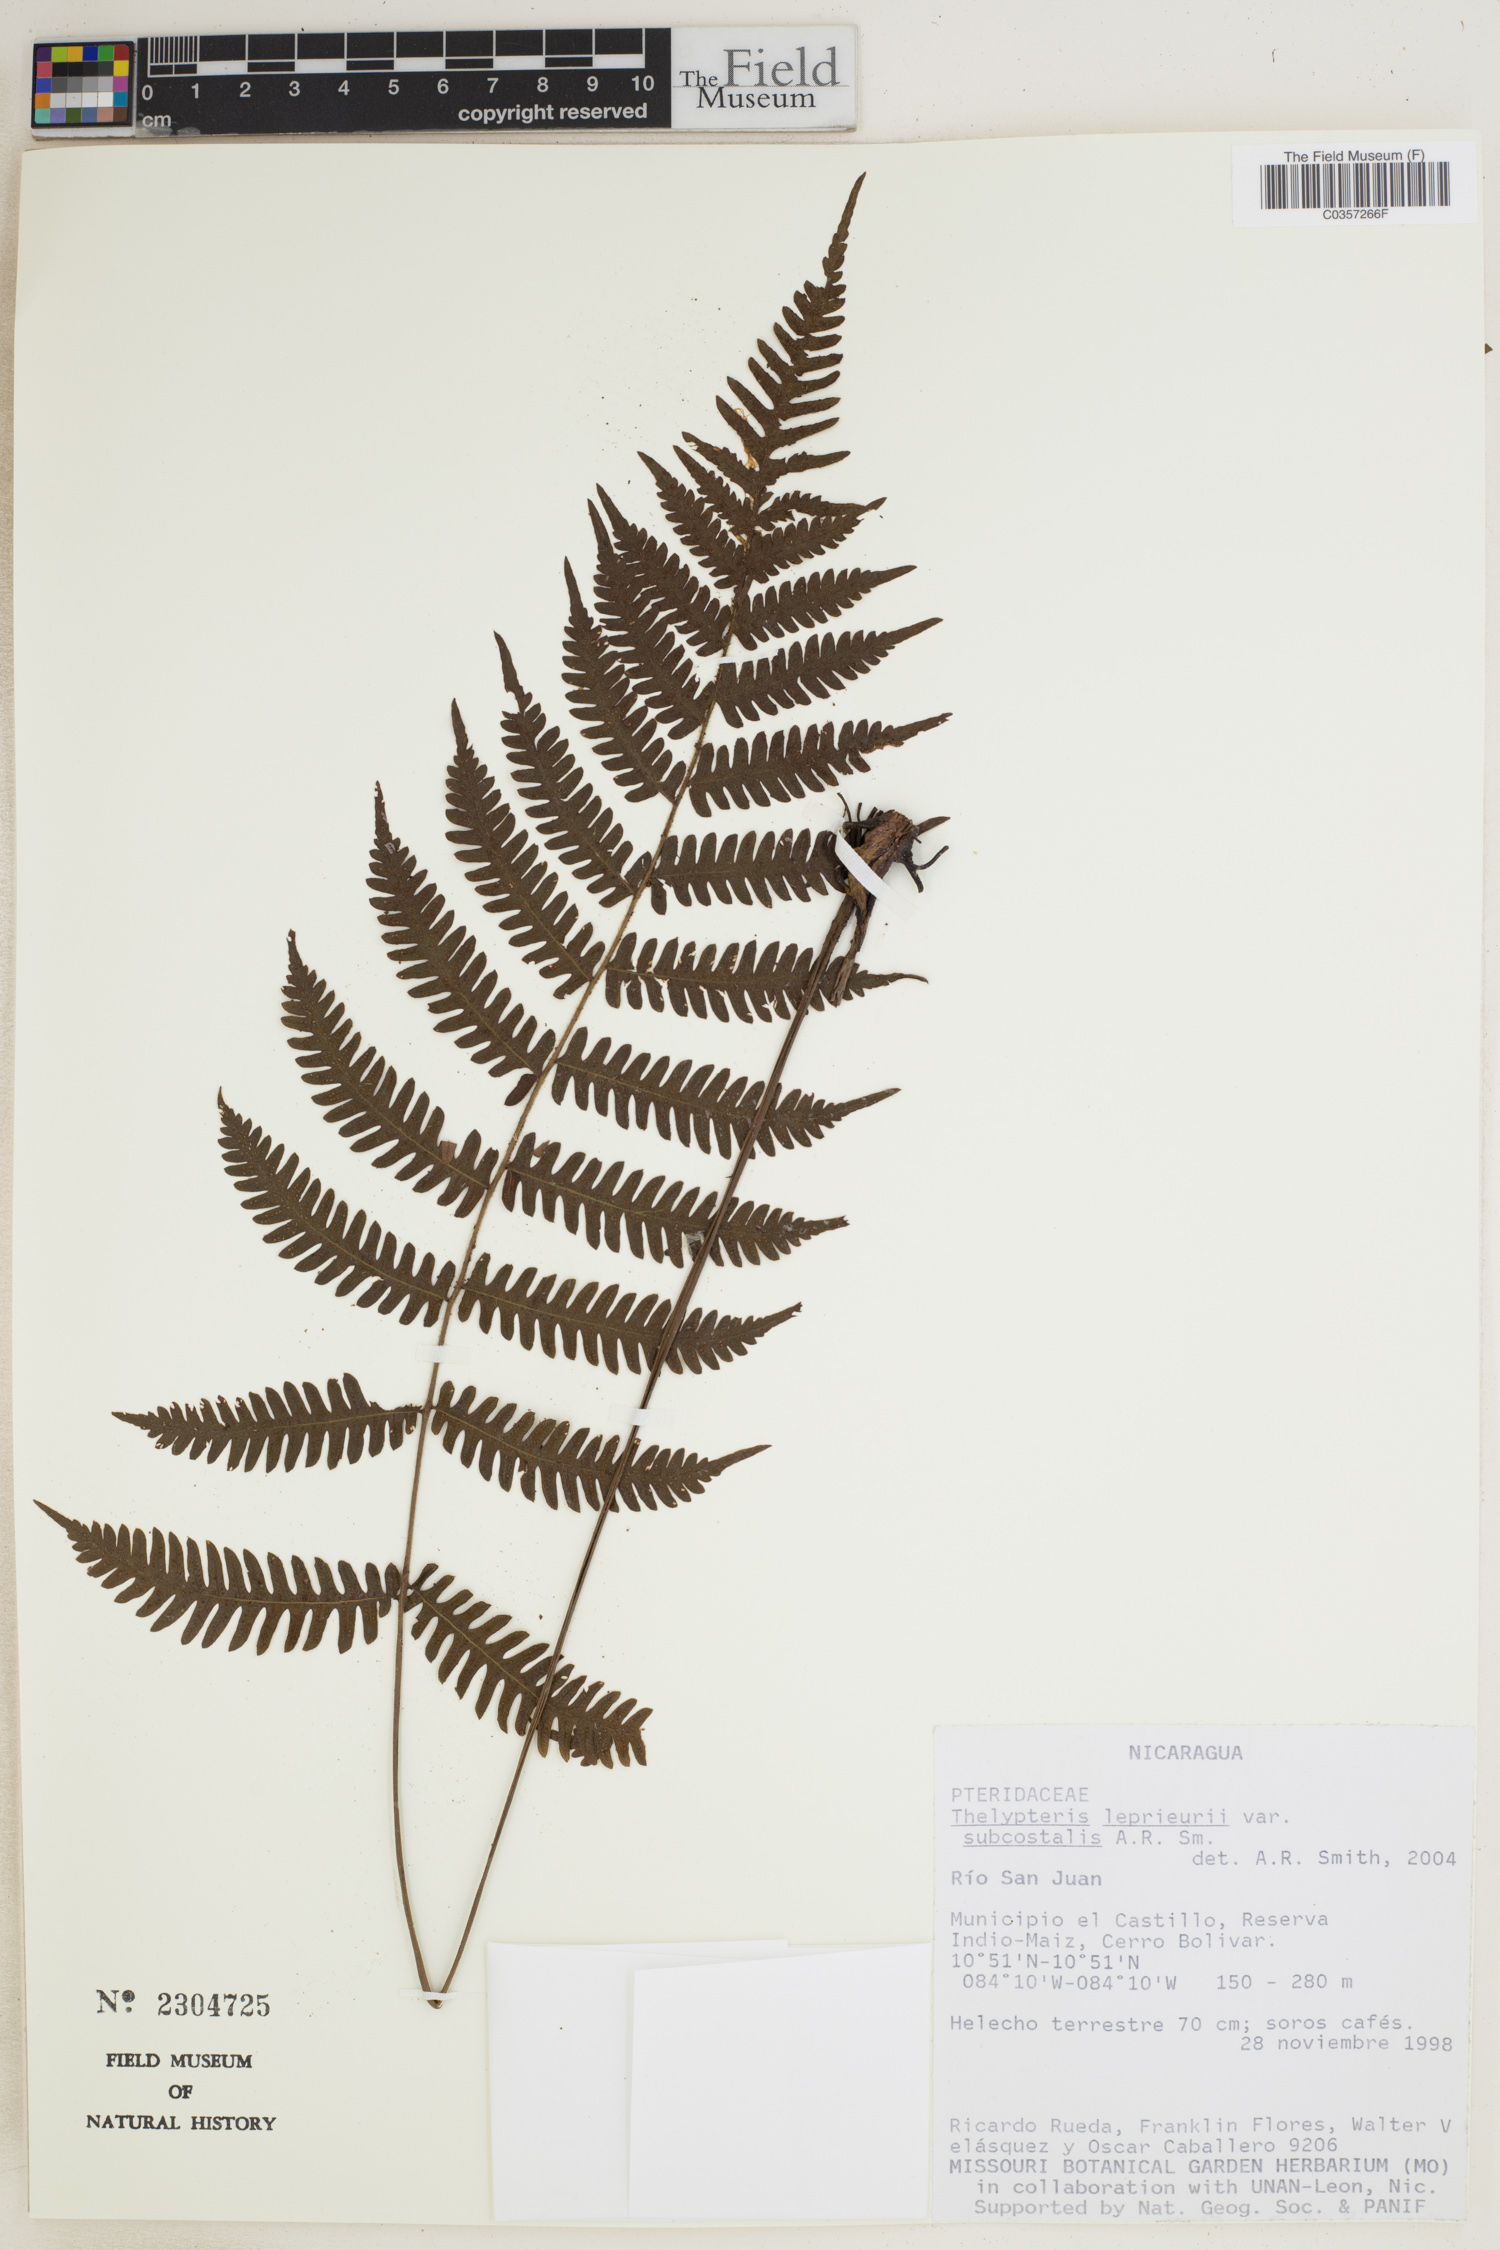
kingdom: Plantae
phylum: Tracheophyta
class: Polypodiopsida
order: Polypodiales
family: Thelypteridaceae
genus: Steiropteris
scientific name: Steiropteris leprieurii
